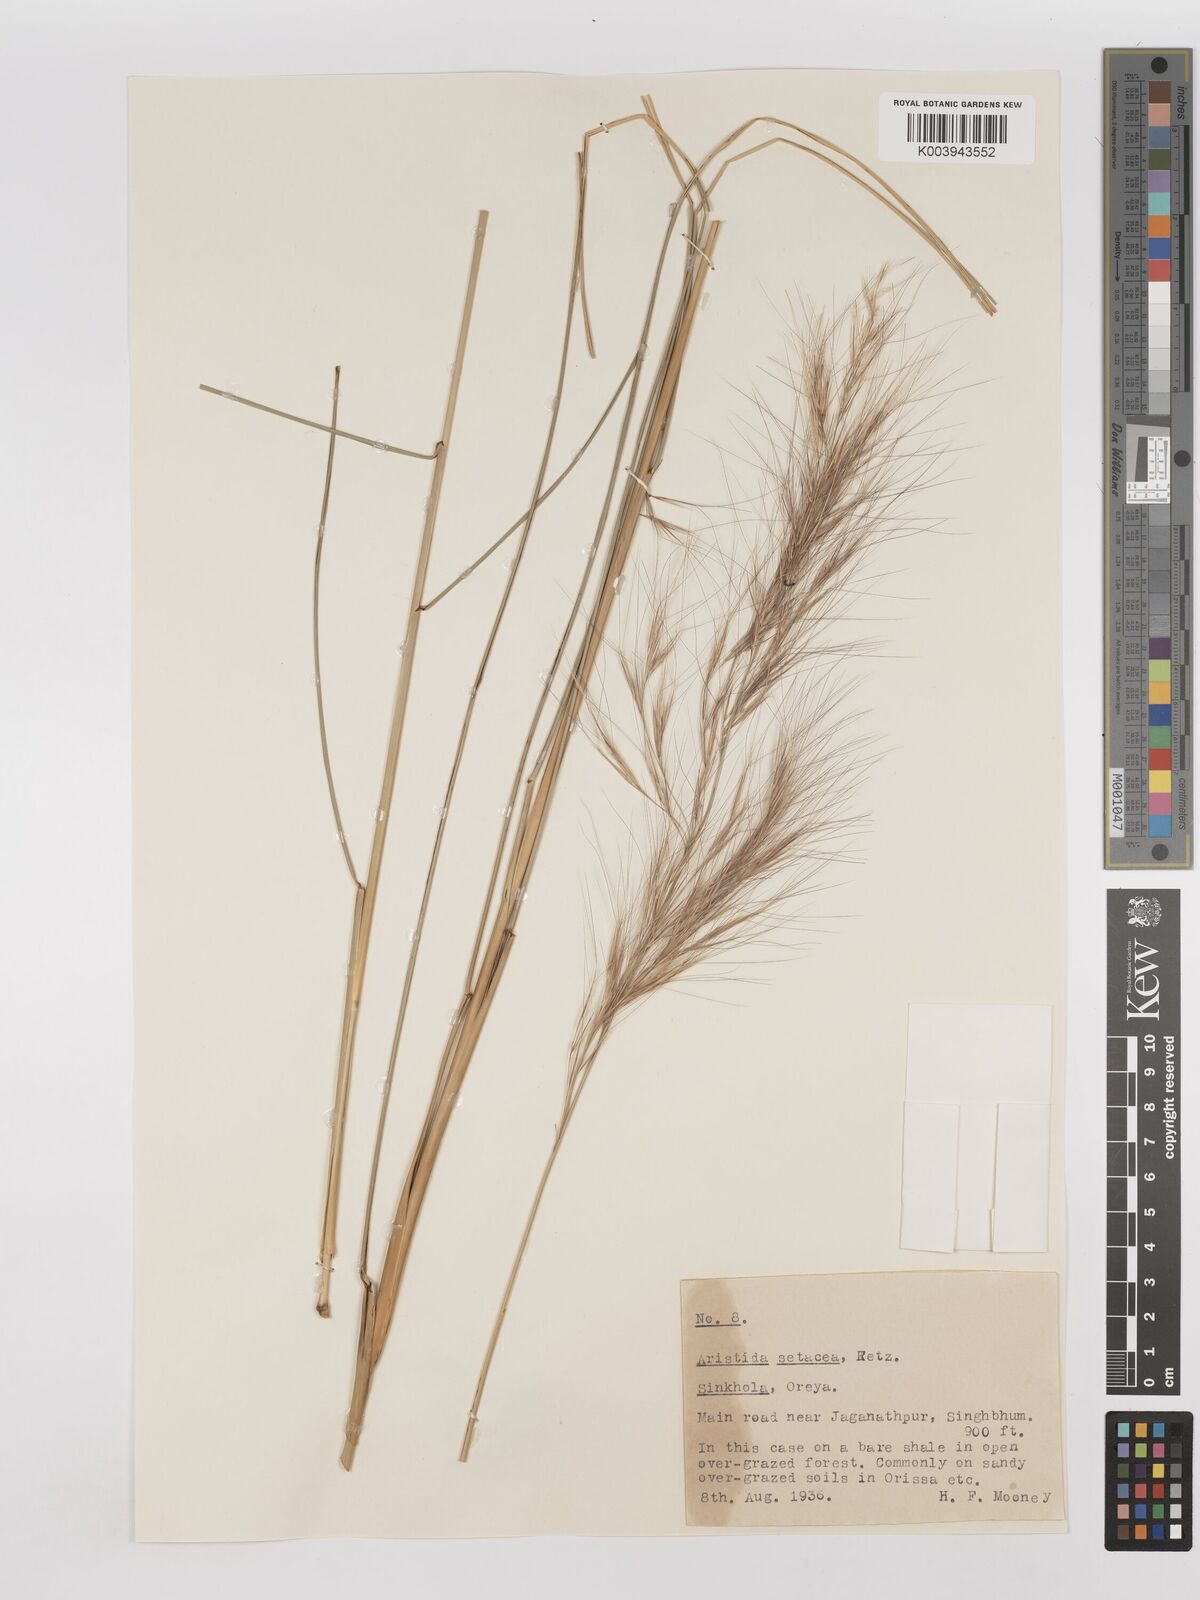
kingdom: Plantae
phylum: Tracheophyta
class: Liliopsida
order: Poales
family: Poaceae
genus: Aristida
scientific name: Aristida setacea
